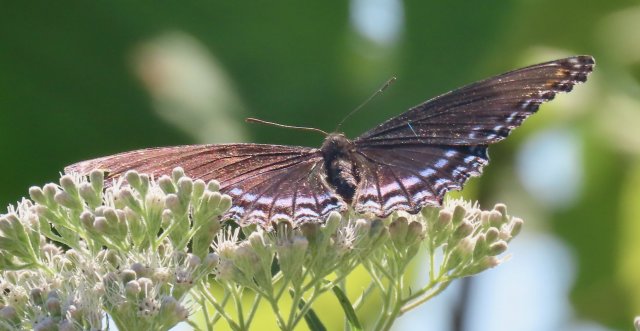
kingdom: Animalia
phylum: Arthropoda
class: Insecta
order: Lepidoptera
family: Nymphalidae
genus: Limenitis
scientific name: Limenitis arthemis
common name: Red-spotted Admiral
